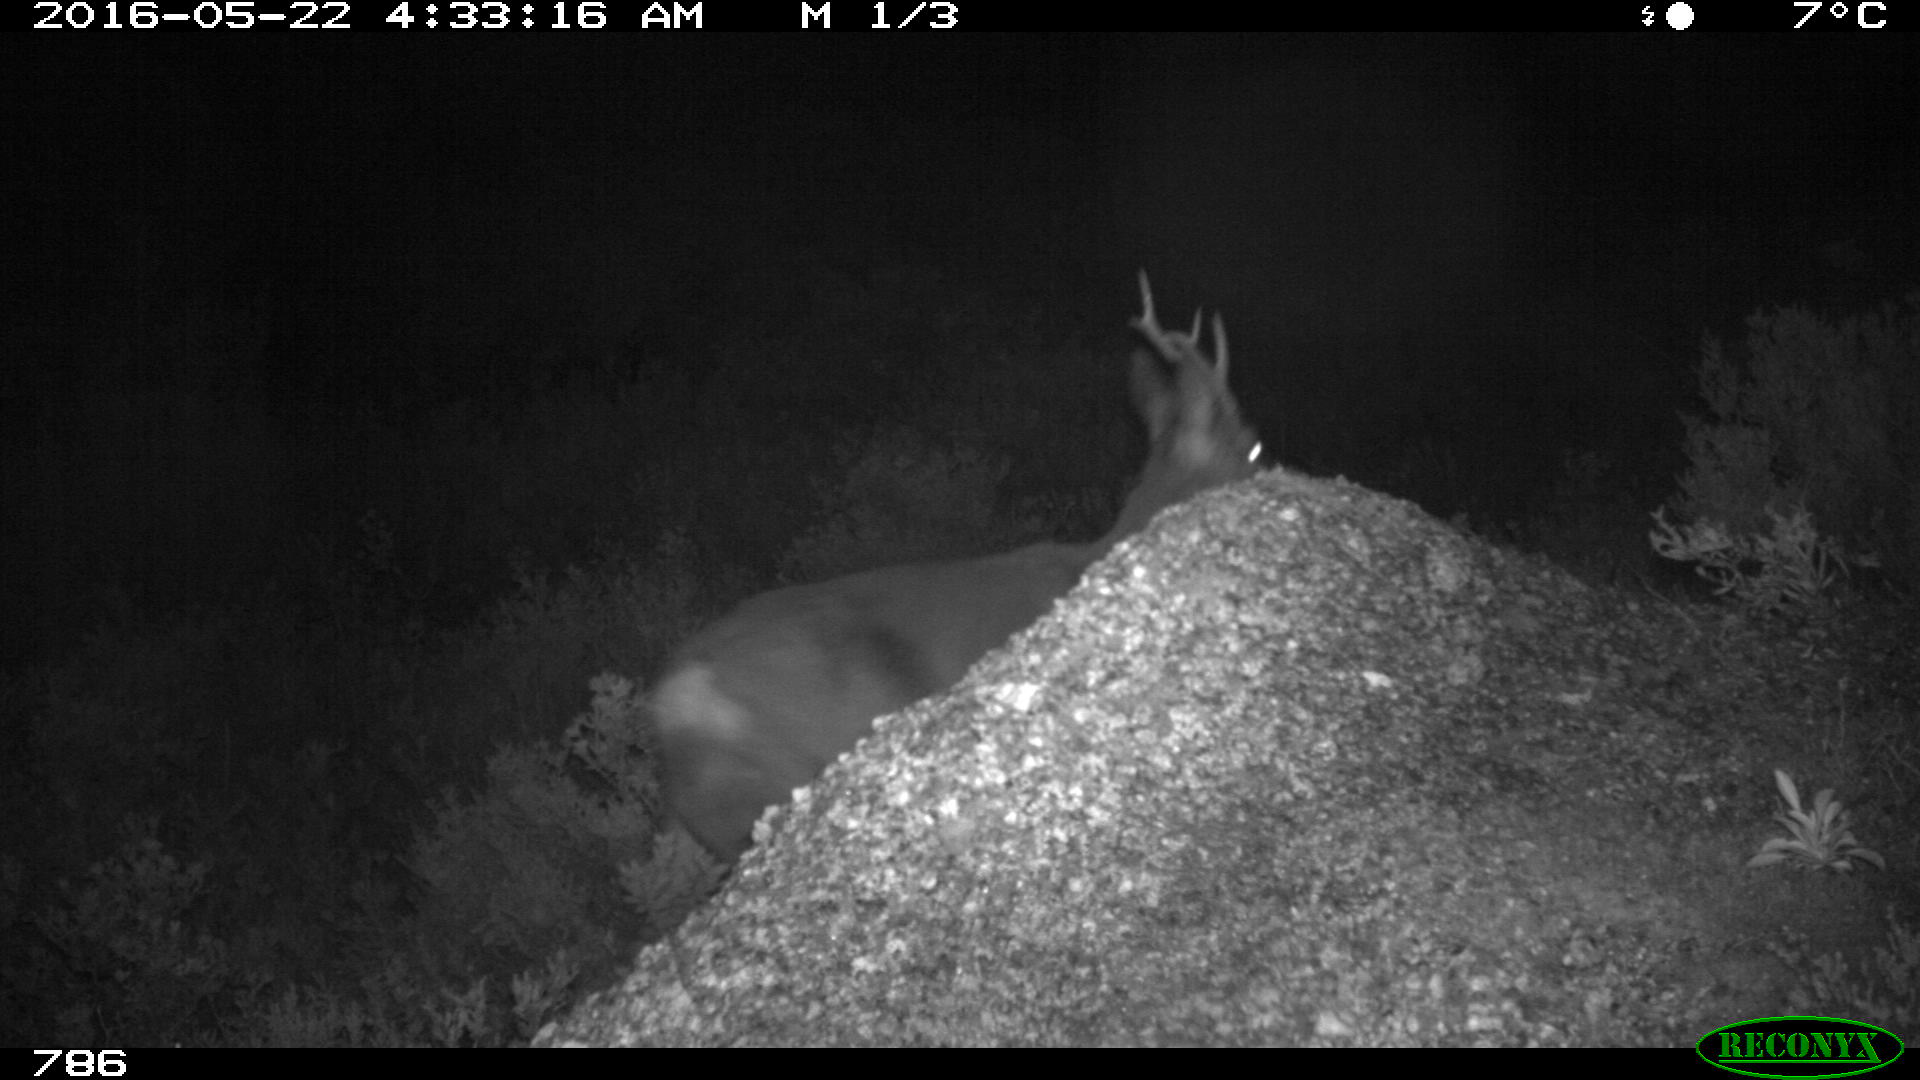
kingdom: Animalia
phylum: Chordata
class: Mammalia
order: Artiodactyla
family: Cervidae
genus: Capreolus
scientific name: Capreolus capreolus
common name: Western roe deer
